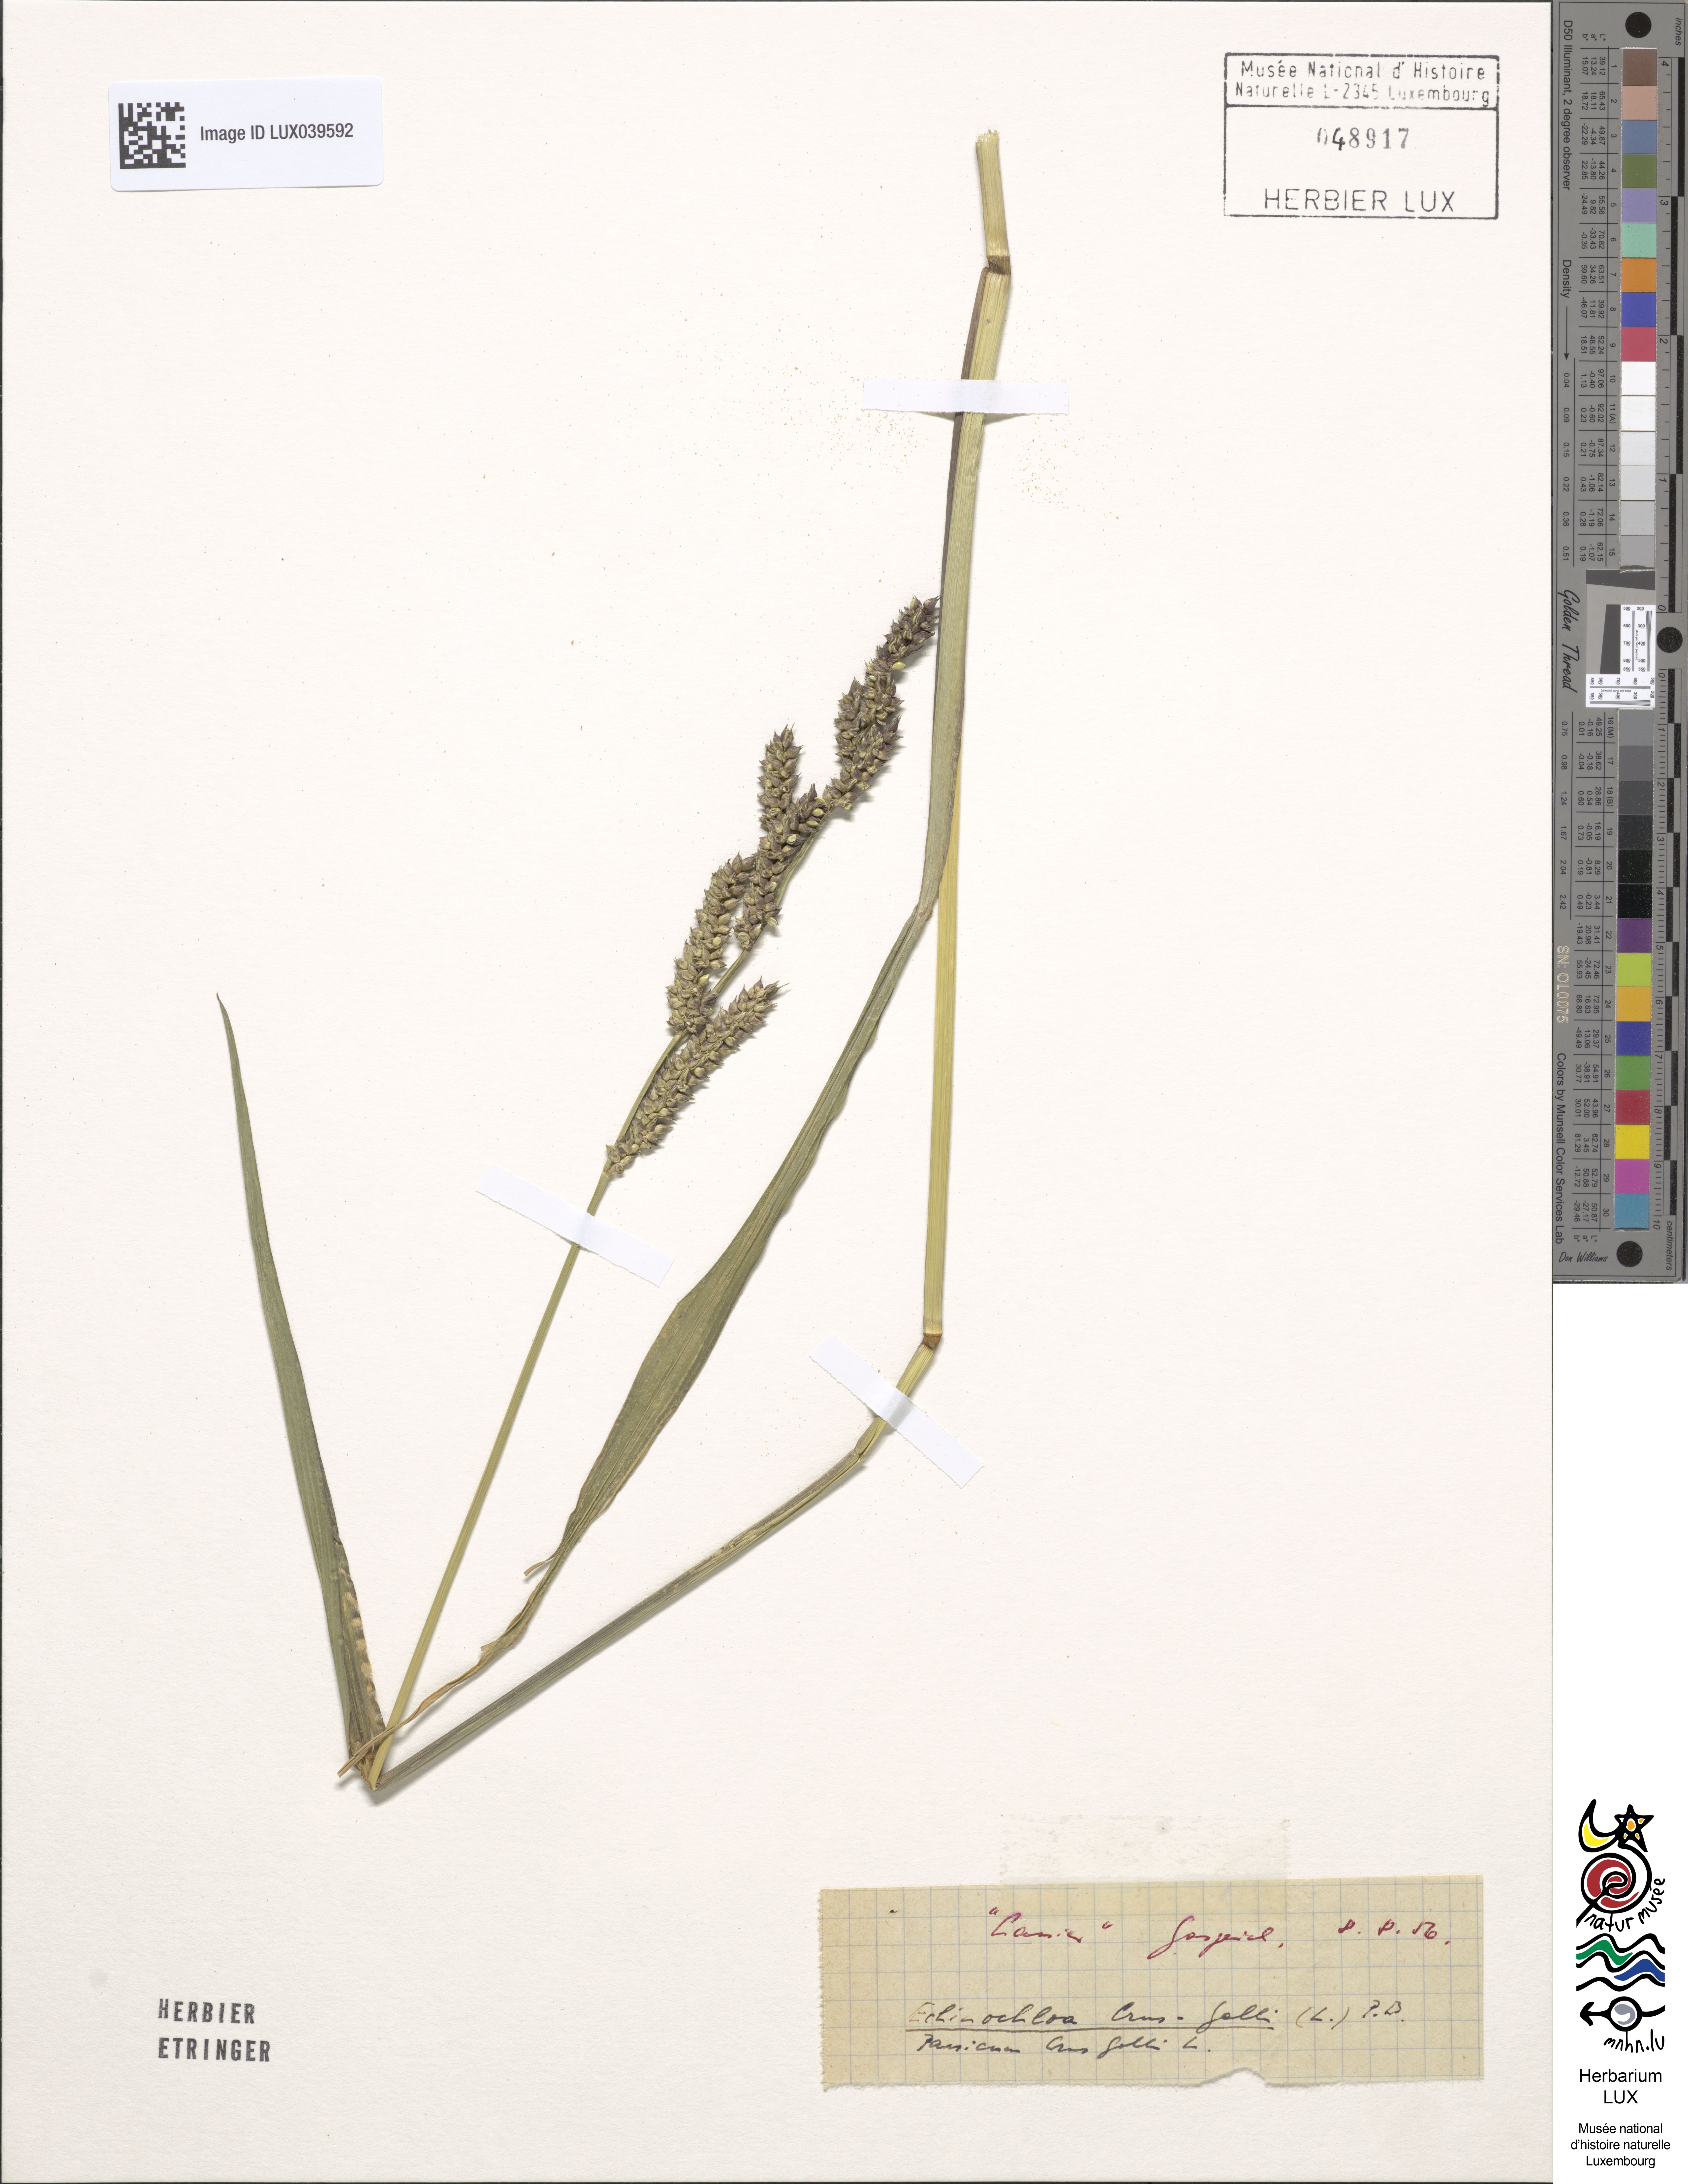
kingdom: Plantae
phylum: Tracheophyta
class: Liliopsida
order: Poales
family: Poaceae
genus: Echinochloa
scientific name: Echinochloa crus-galli
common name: Cockspur
